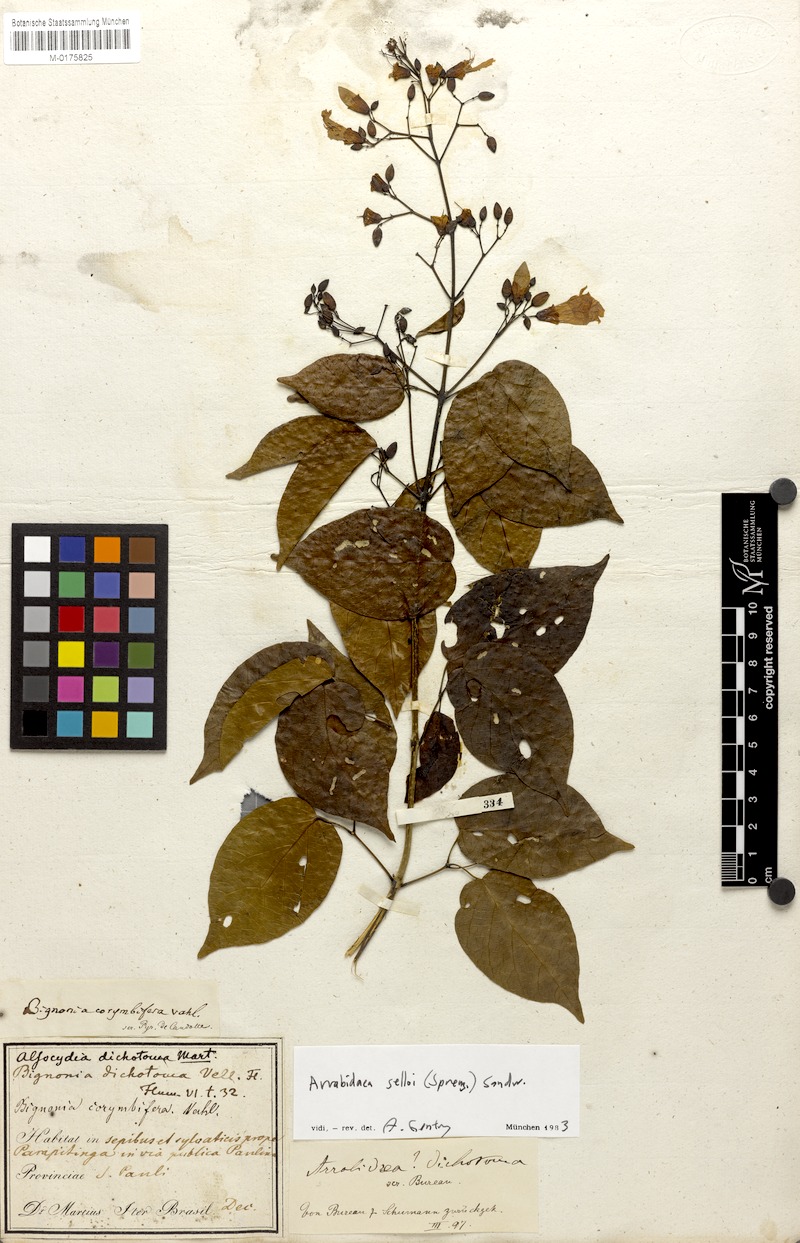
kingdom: Plantae
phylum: Tracheophyta
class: Magnoliopsida
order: Lamiales
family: Bignoniaceae
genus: Tanaecium
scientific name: Tanaecium selloi
